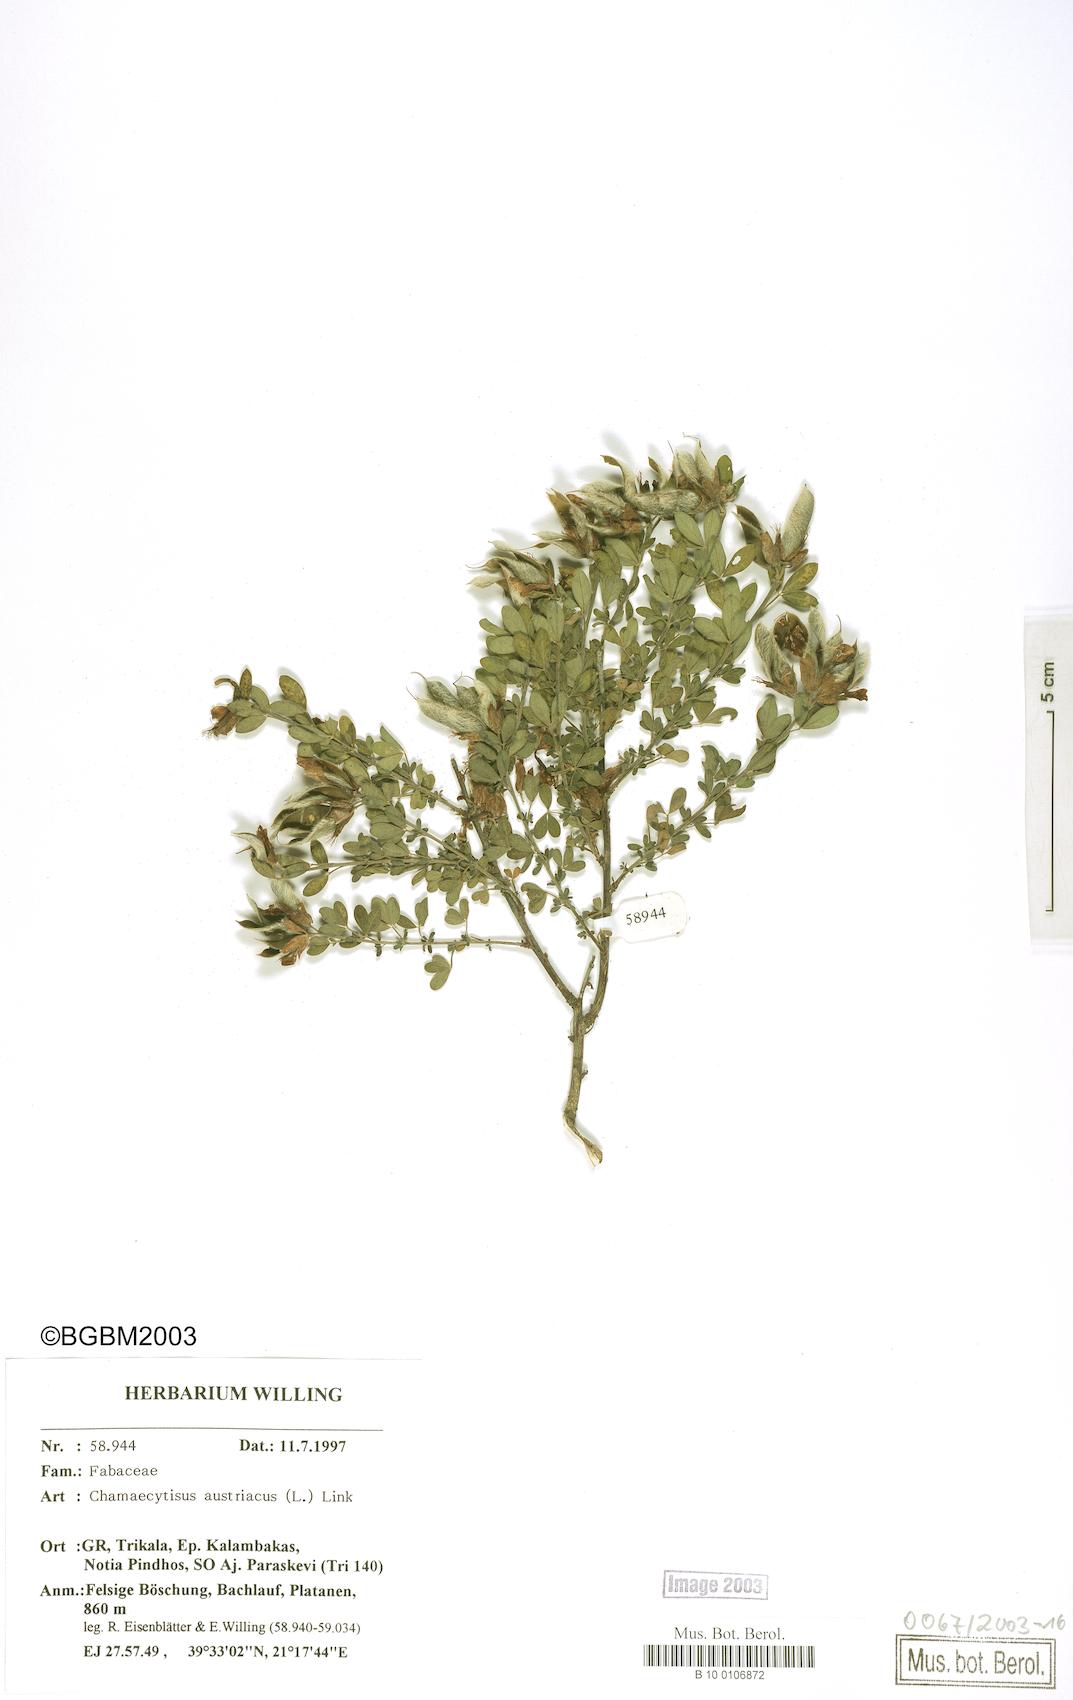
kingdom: Plantae
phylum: Tracheophyta
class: Magnoliopsida
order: Fabales
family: Fabaceae
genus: Chamaecytisus
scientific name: Chamaecytisus austriacus
